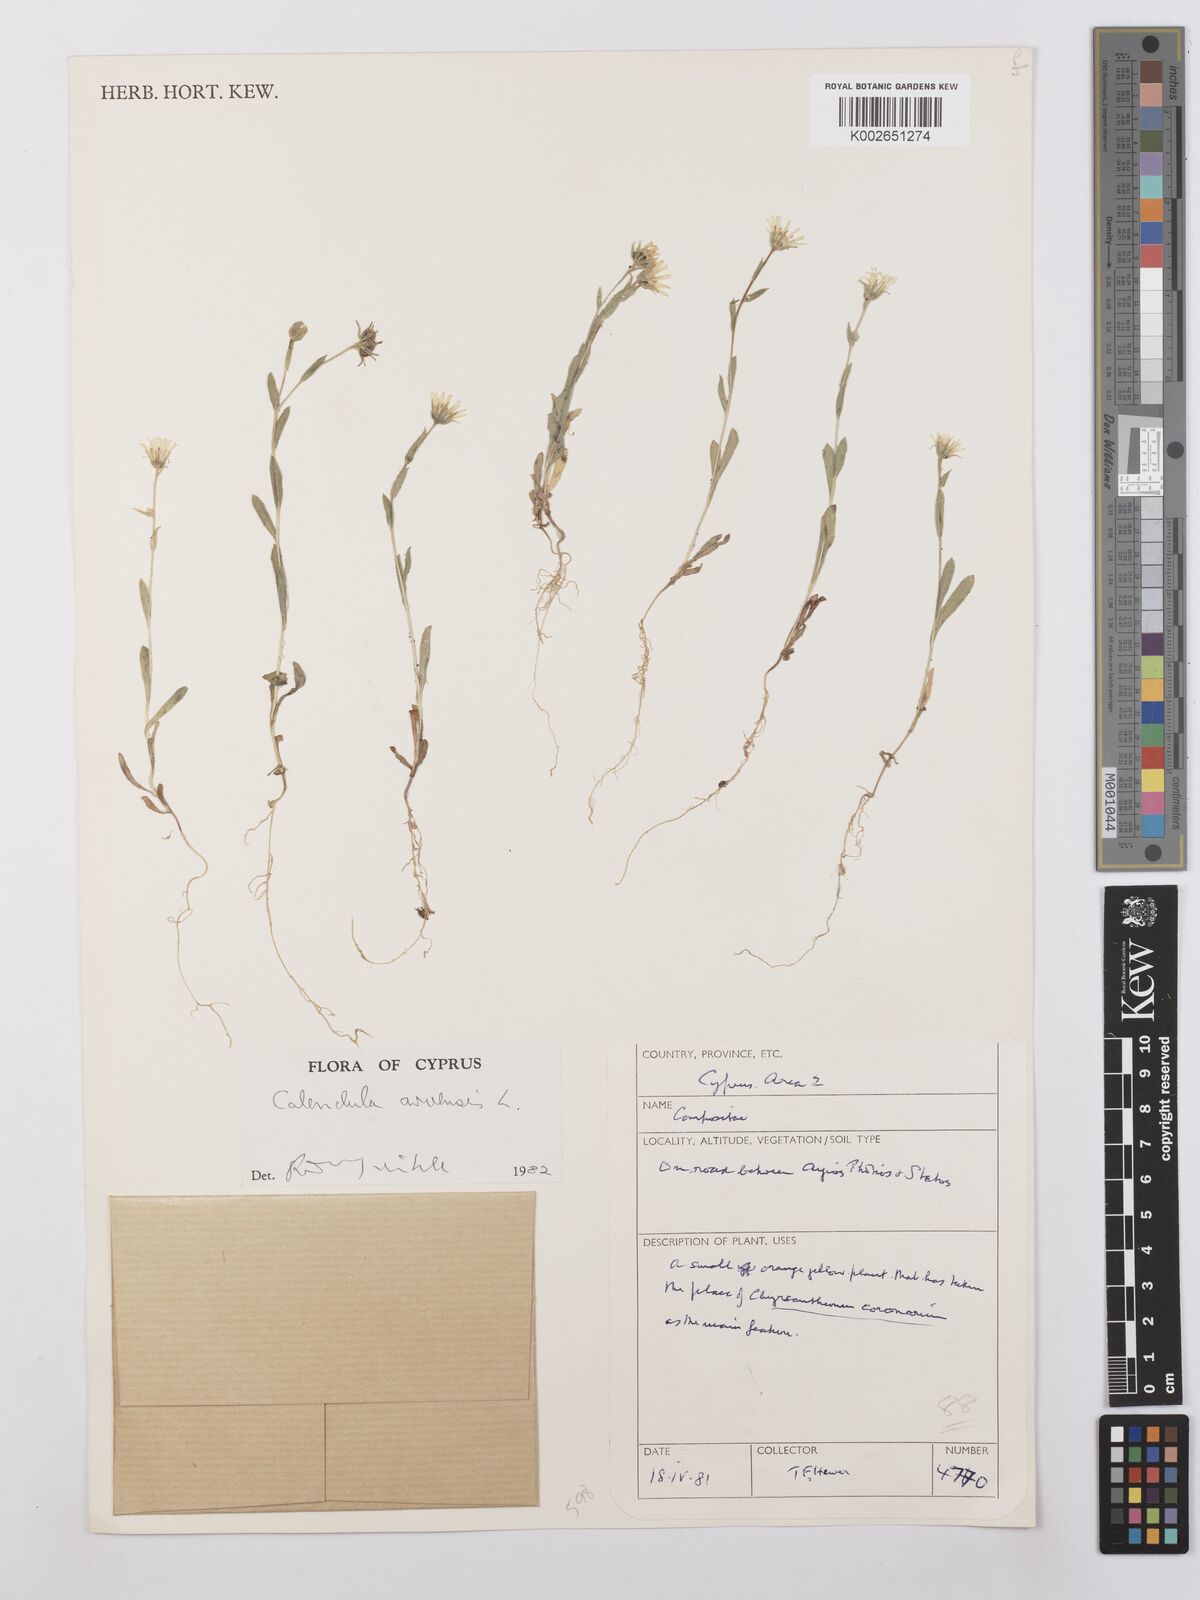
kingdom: Plantae
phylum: Tracheophyta
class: Magnoliopsida
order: Asterales
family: Asteraceae
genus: Calendula
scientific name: Calendula arvensis
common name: Field marigold
